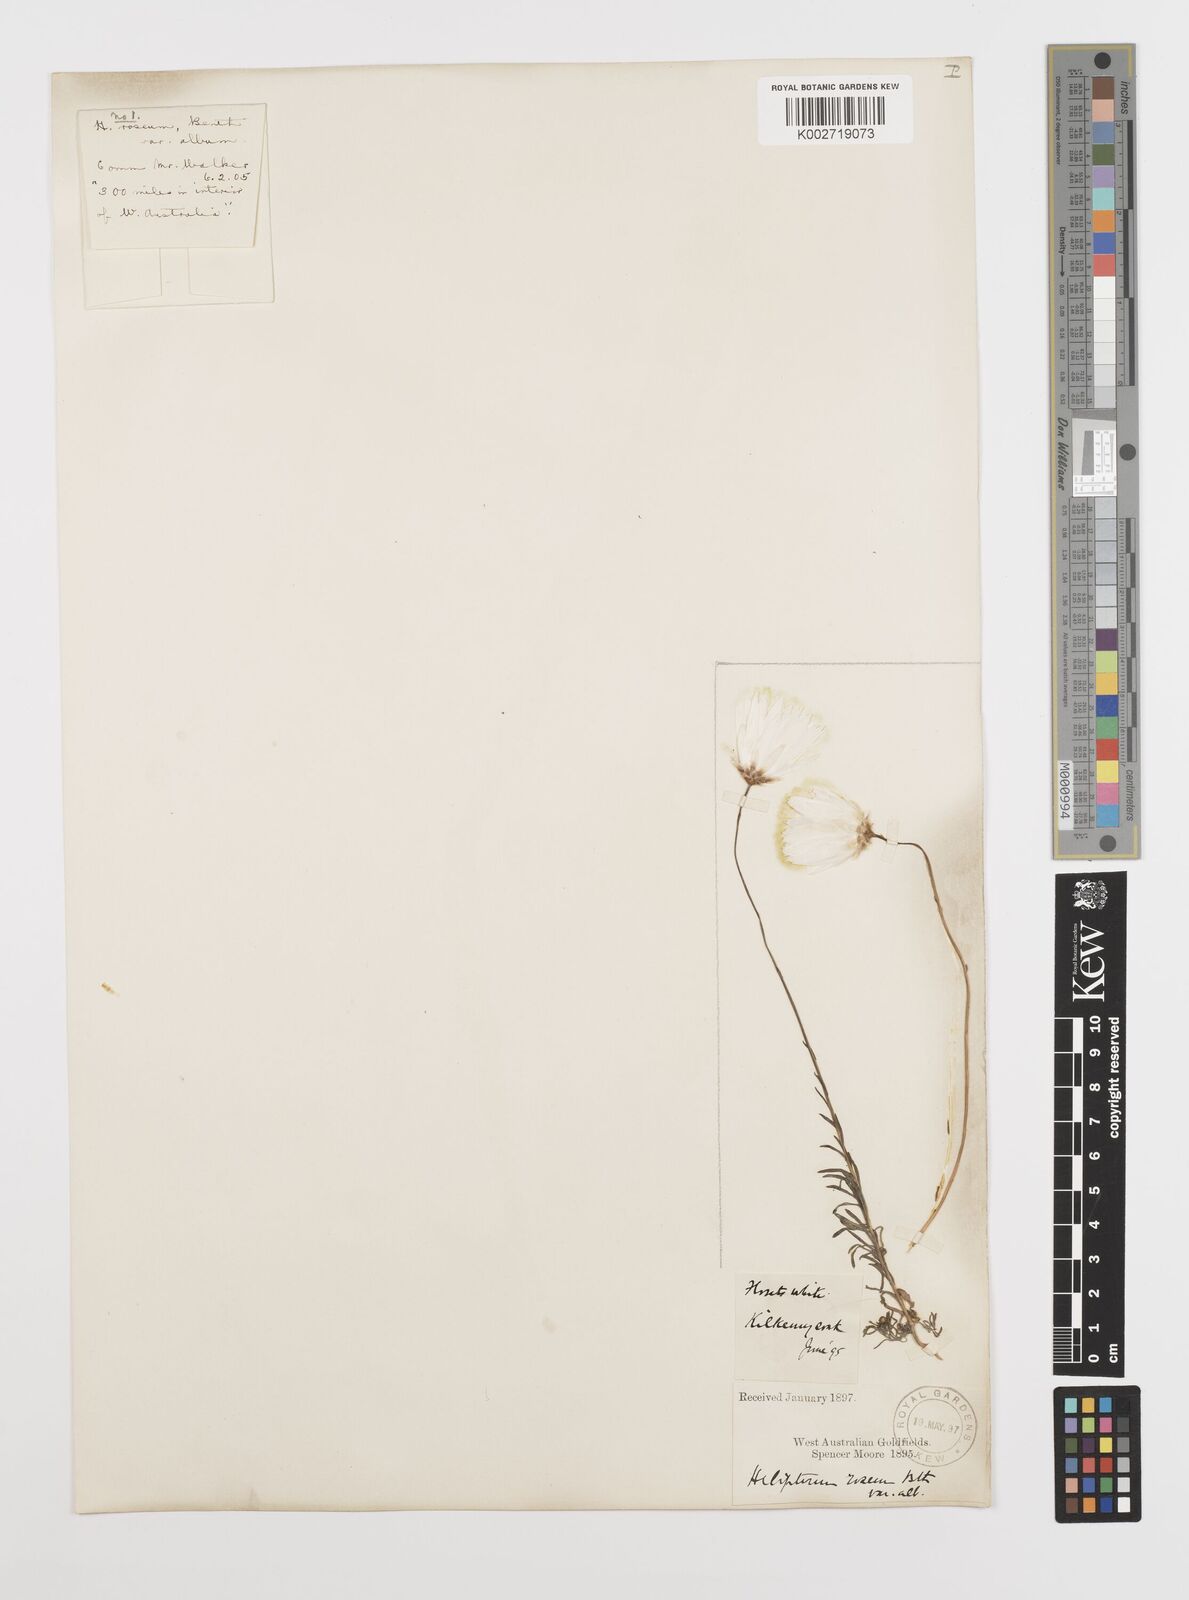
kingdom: Plantae
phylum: Tracheophyta
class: Magnoliopsida
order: Asterales
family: Asteraceae
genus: Rhodanthe
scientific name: Rhodanthe chlorocephala
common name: Rosy sunray
